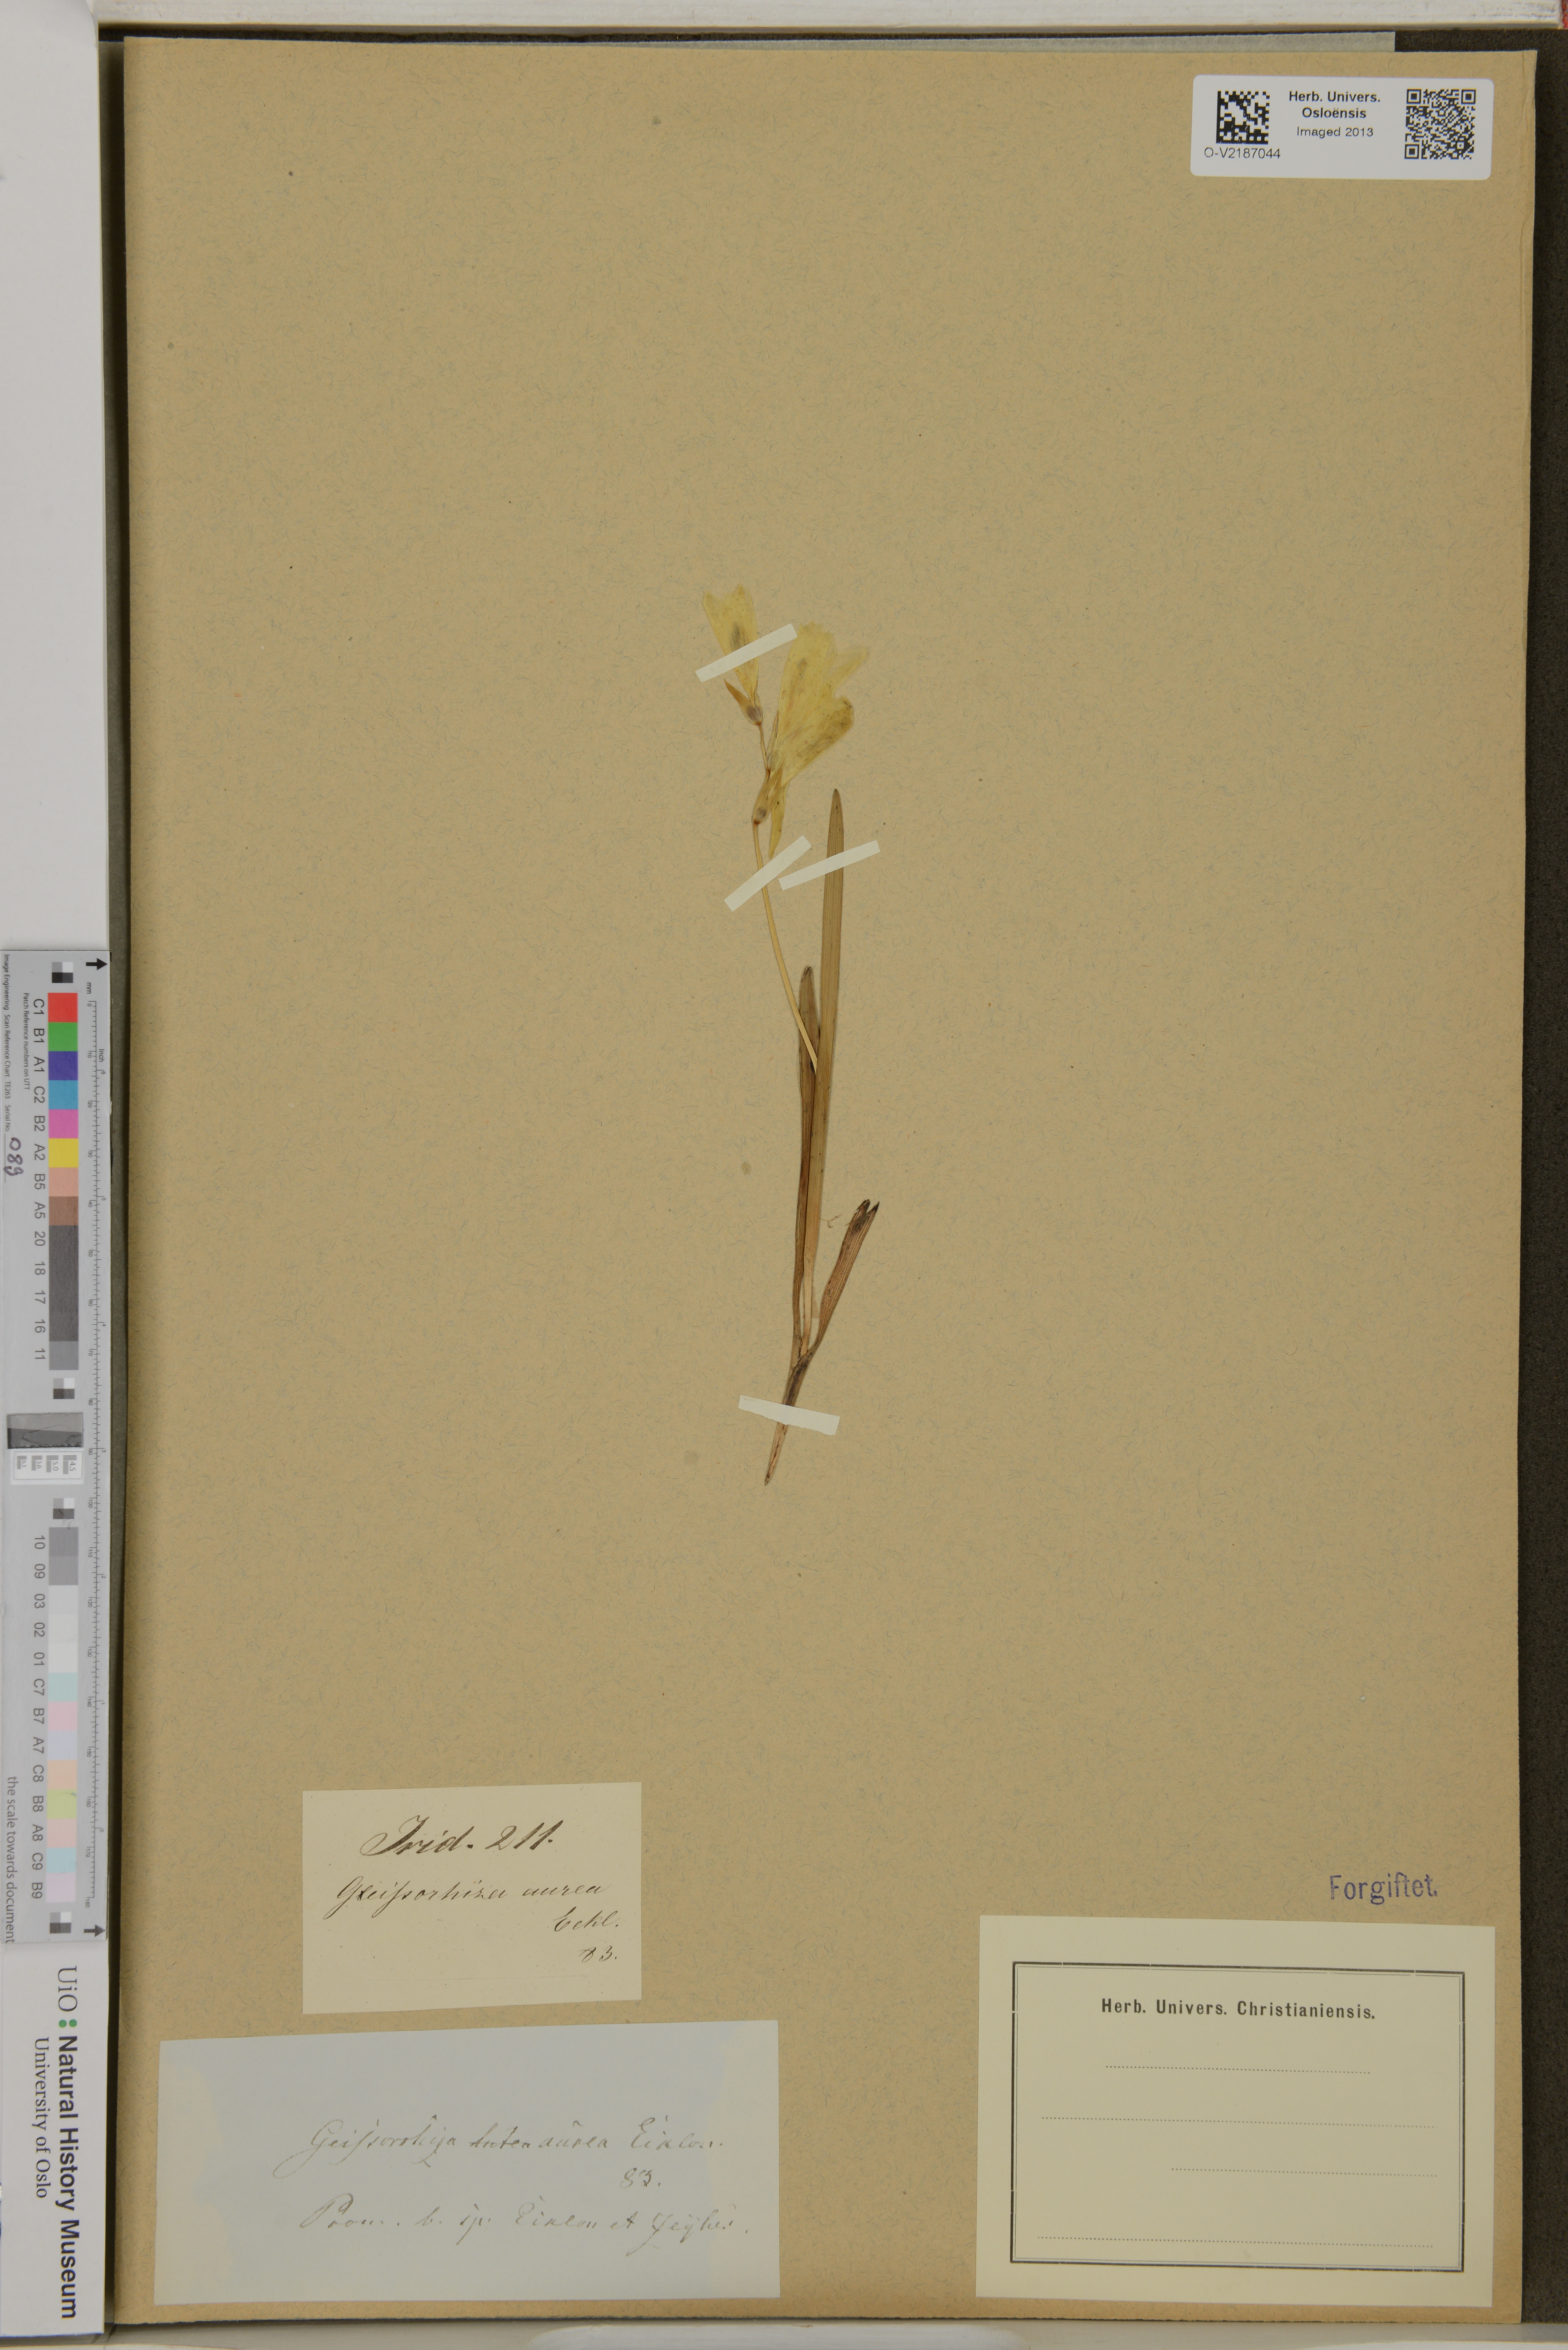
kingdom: Plantae
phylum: Tracheophyta
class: Liliopsida
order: Asparagales
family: Iridaceae
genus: Geissorhiza
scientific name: Geissorhiza imbricata
